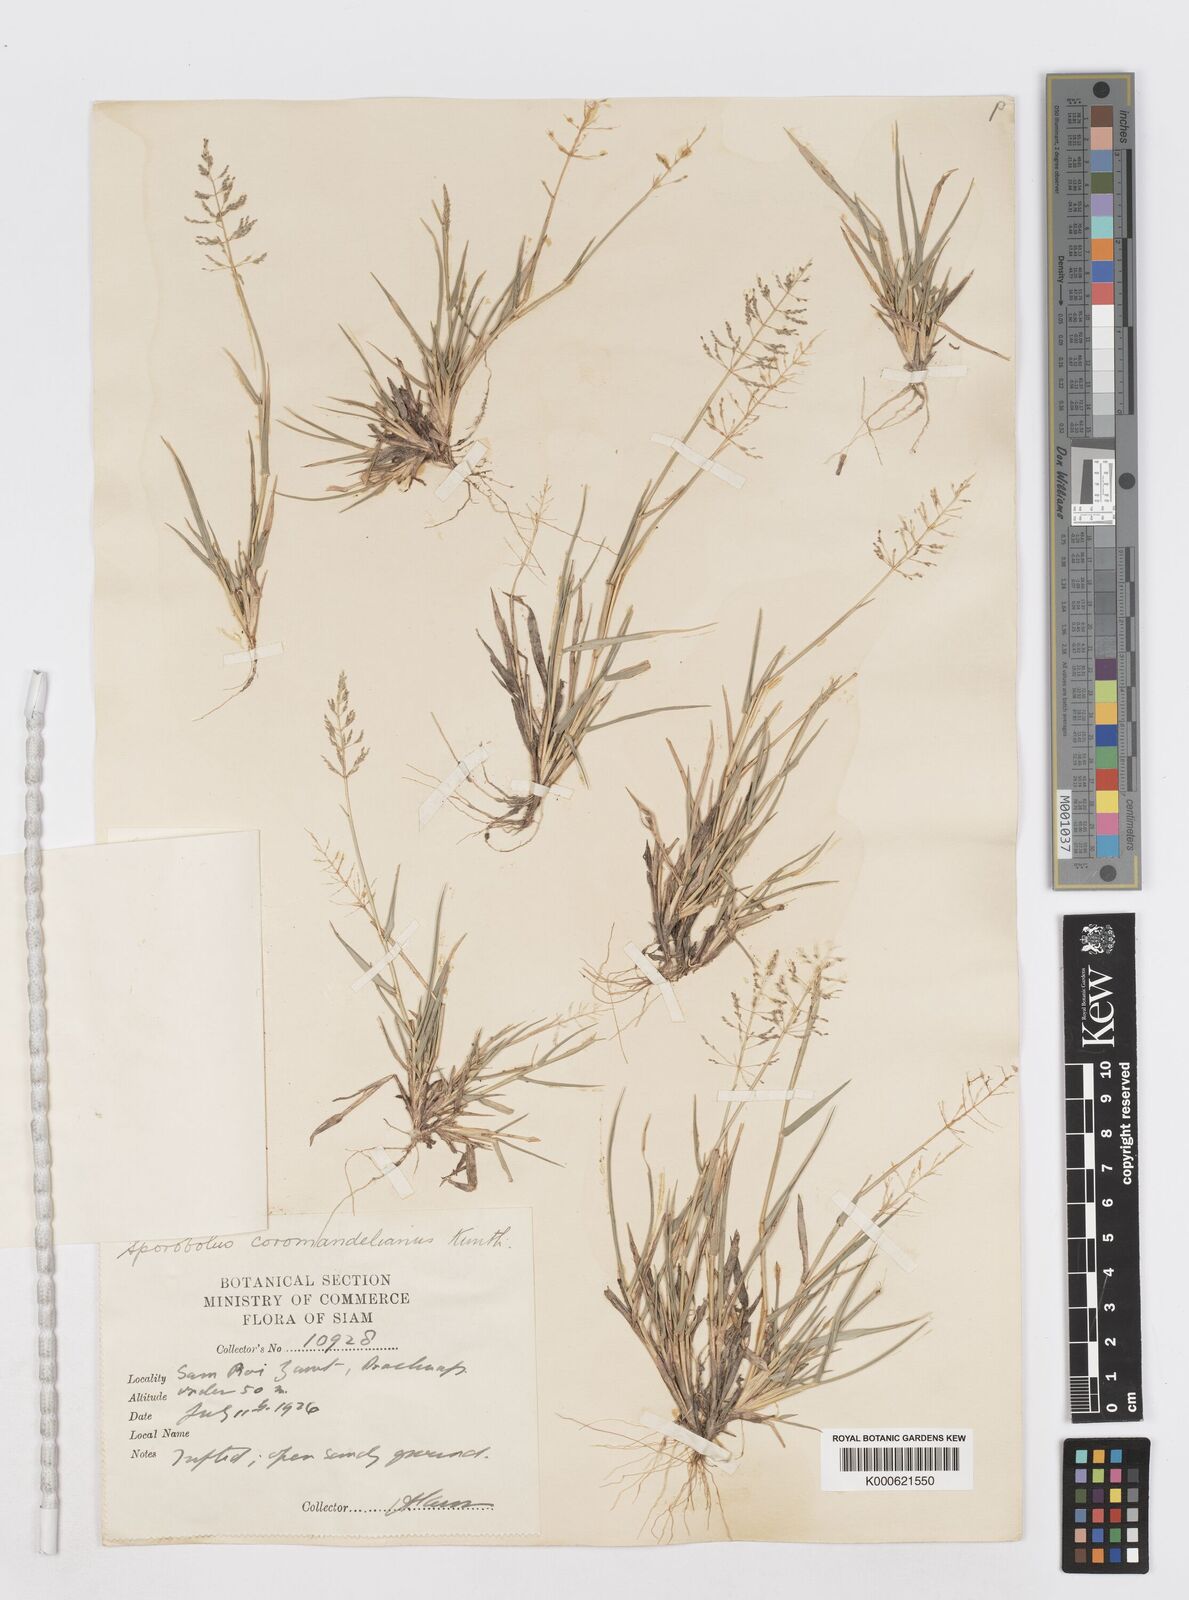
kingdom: Plantae
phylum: Tracheophyta
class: Liliopsida
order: Poales
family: Poaceae
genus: Sporobolus
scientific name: Sporobolus coromandelianus
